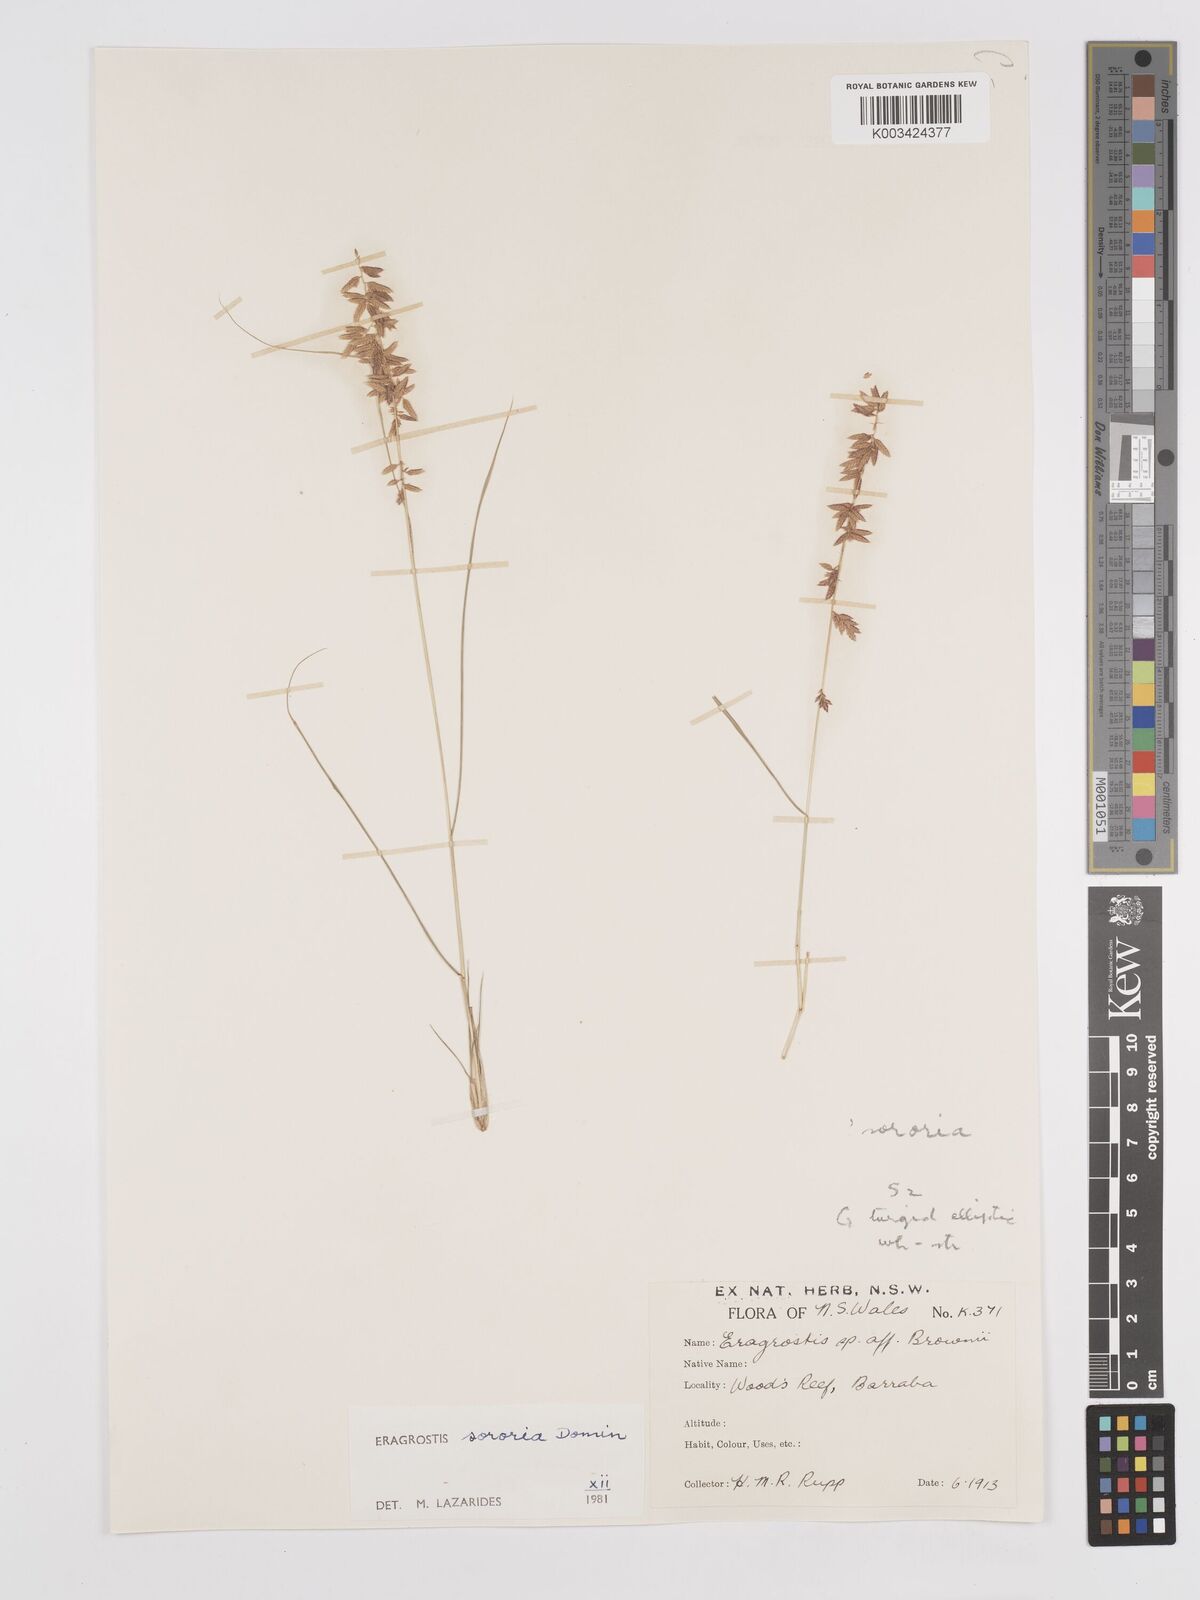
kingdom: Plantae
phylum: Tracheophyta
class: Liliopsida
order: Poales
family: Poaceae
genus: Eragrostis
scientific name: Eragrostis sororia
